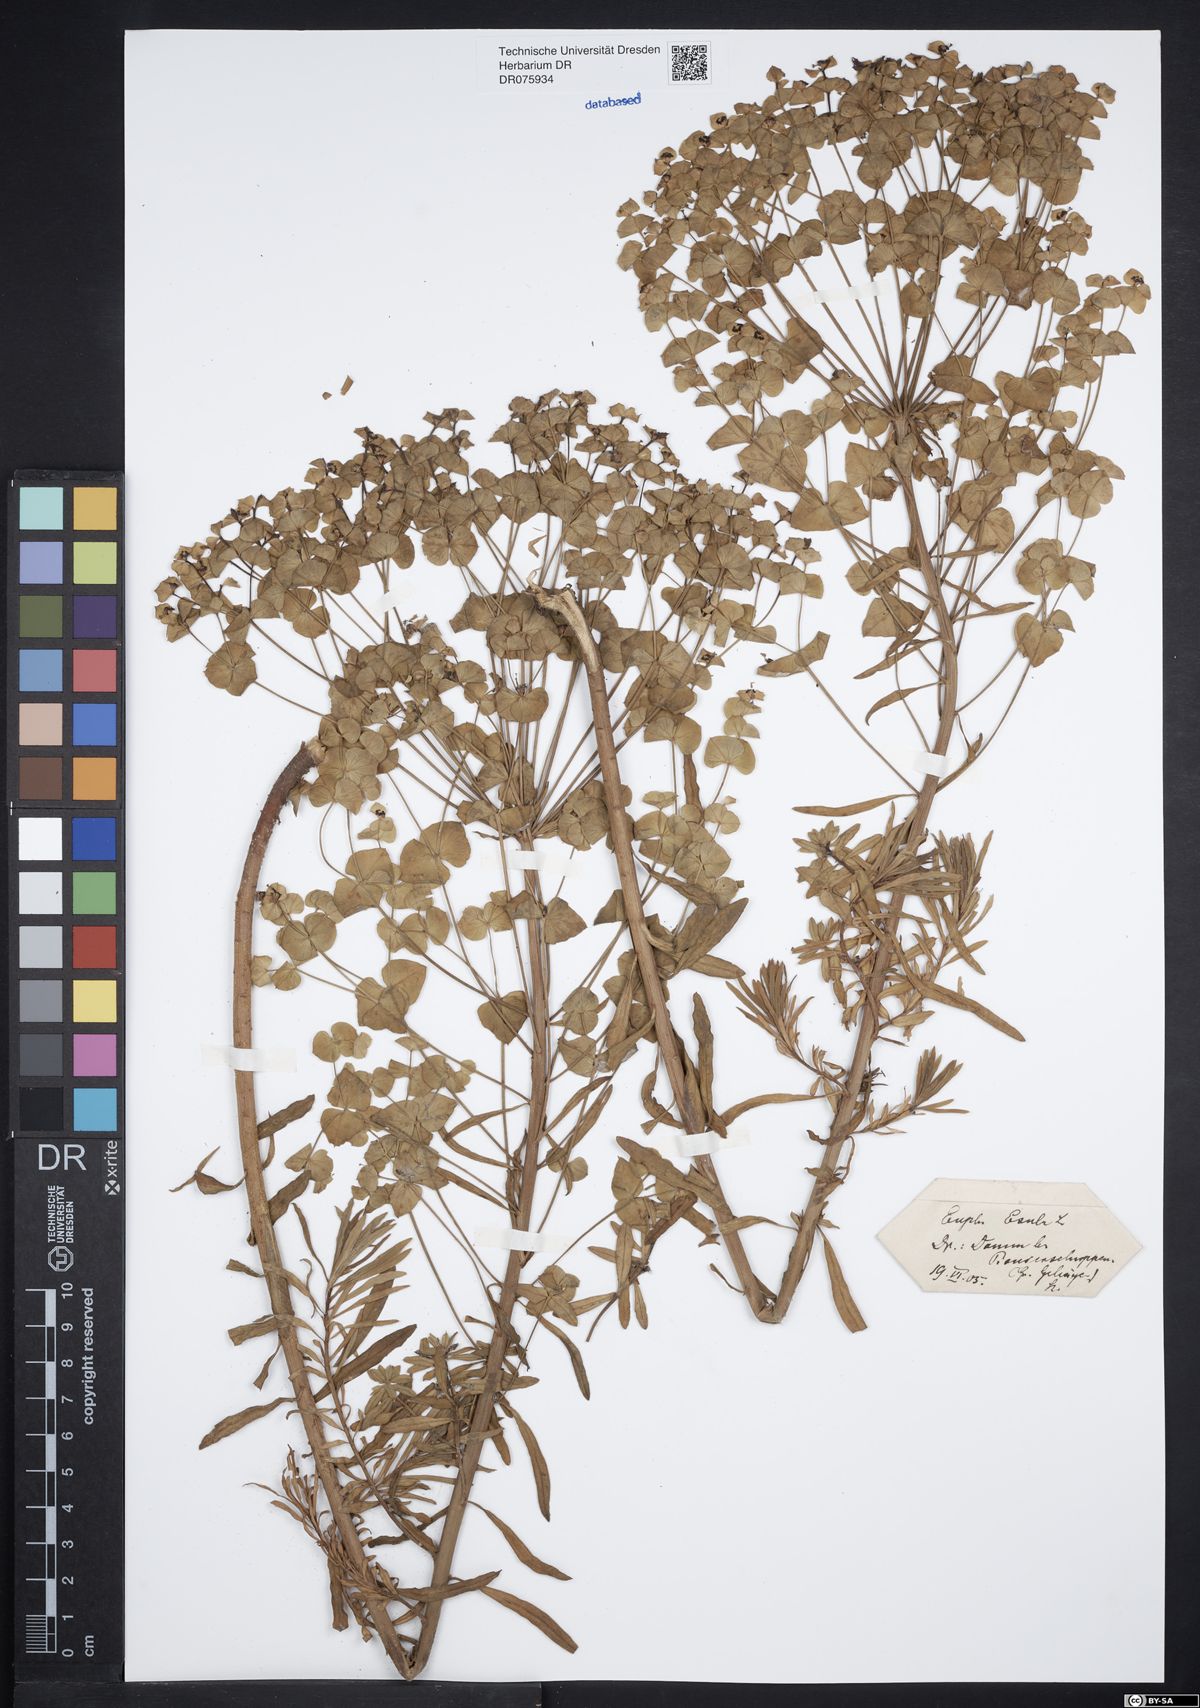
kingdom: Plantae
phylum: Tracheophyta
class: Magnoliopsida
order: Malpighiales
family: Euphorbiaceae
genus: Euphorbia
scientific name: Euphorbia esula
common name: Leafy spurge
